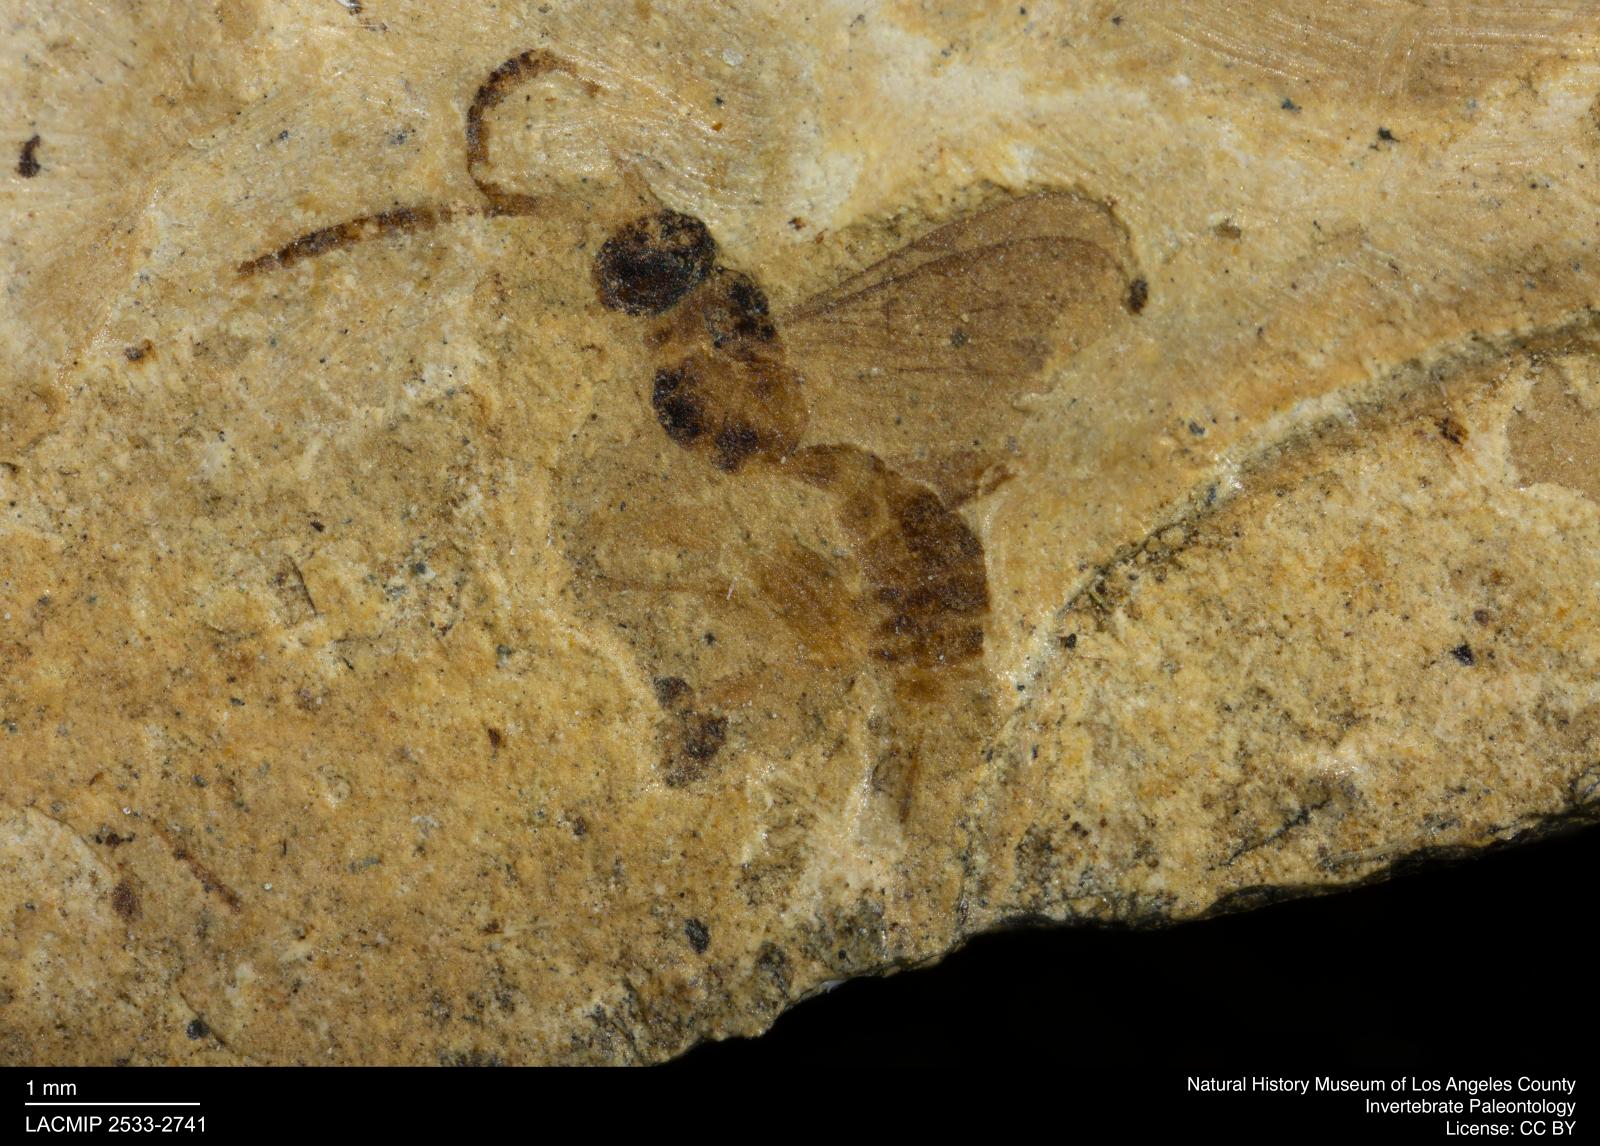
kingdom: Animalia
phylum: Arthropoda
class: Insecta
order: Hymenoptera
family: Ichneumonidae
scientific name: Ichneumonidae
